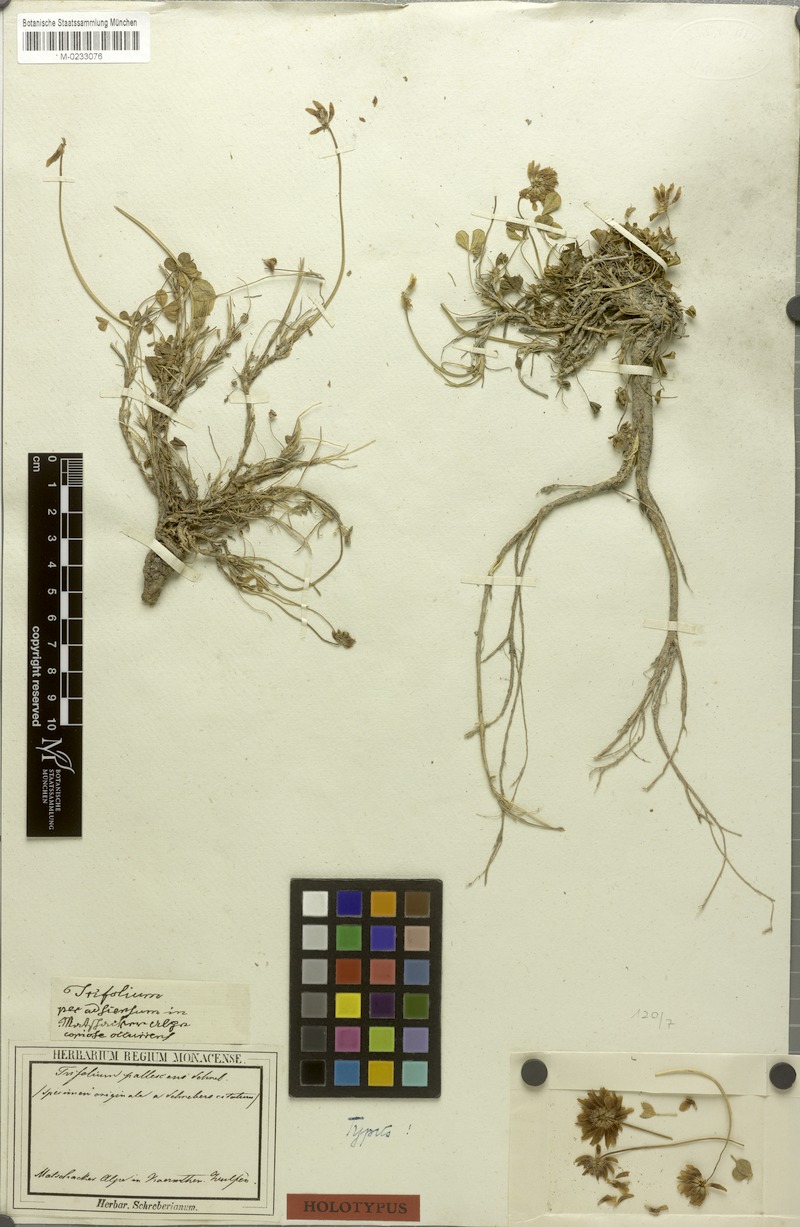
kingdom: Plantae
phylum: Tracheophyta
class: Magnoliopsida
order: Fabales
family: Fabaceae
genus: Trifolium
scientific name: Trifolium pallescens
